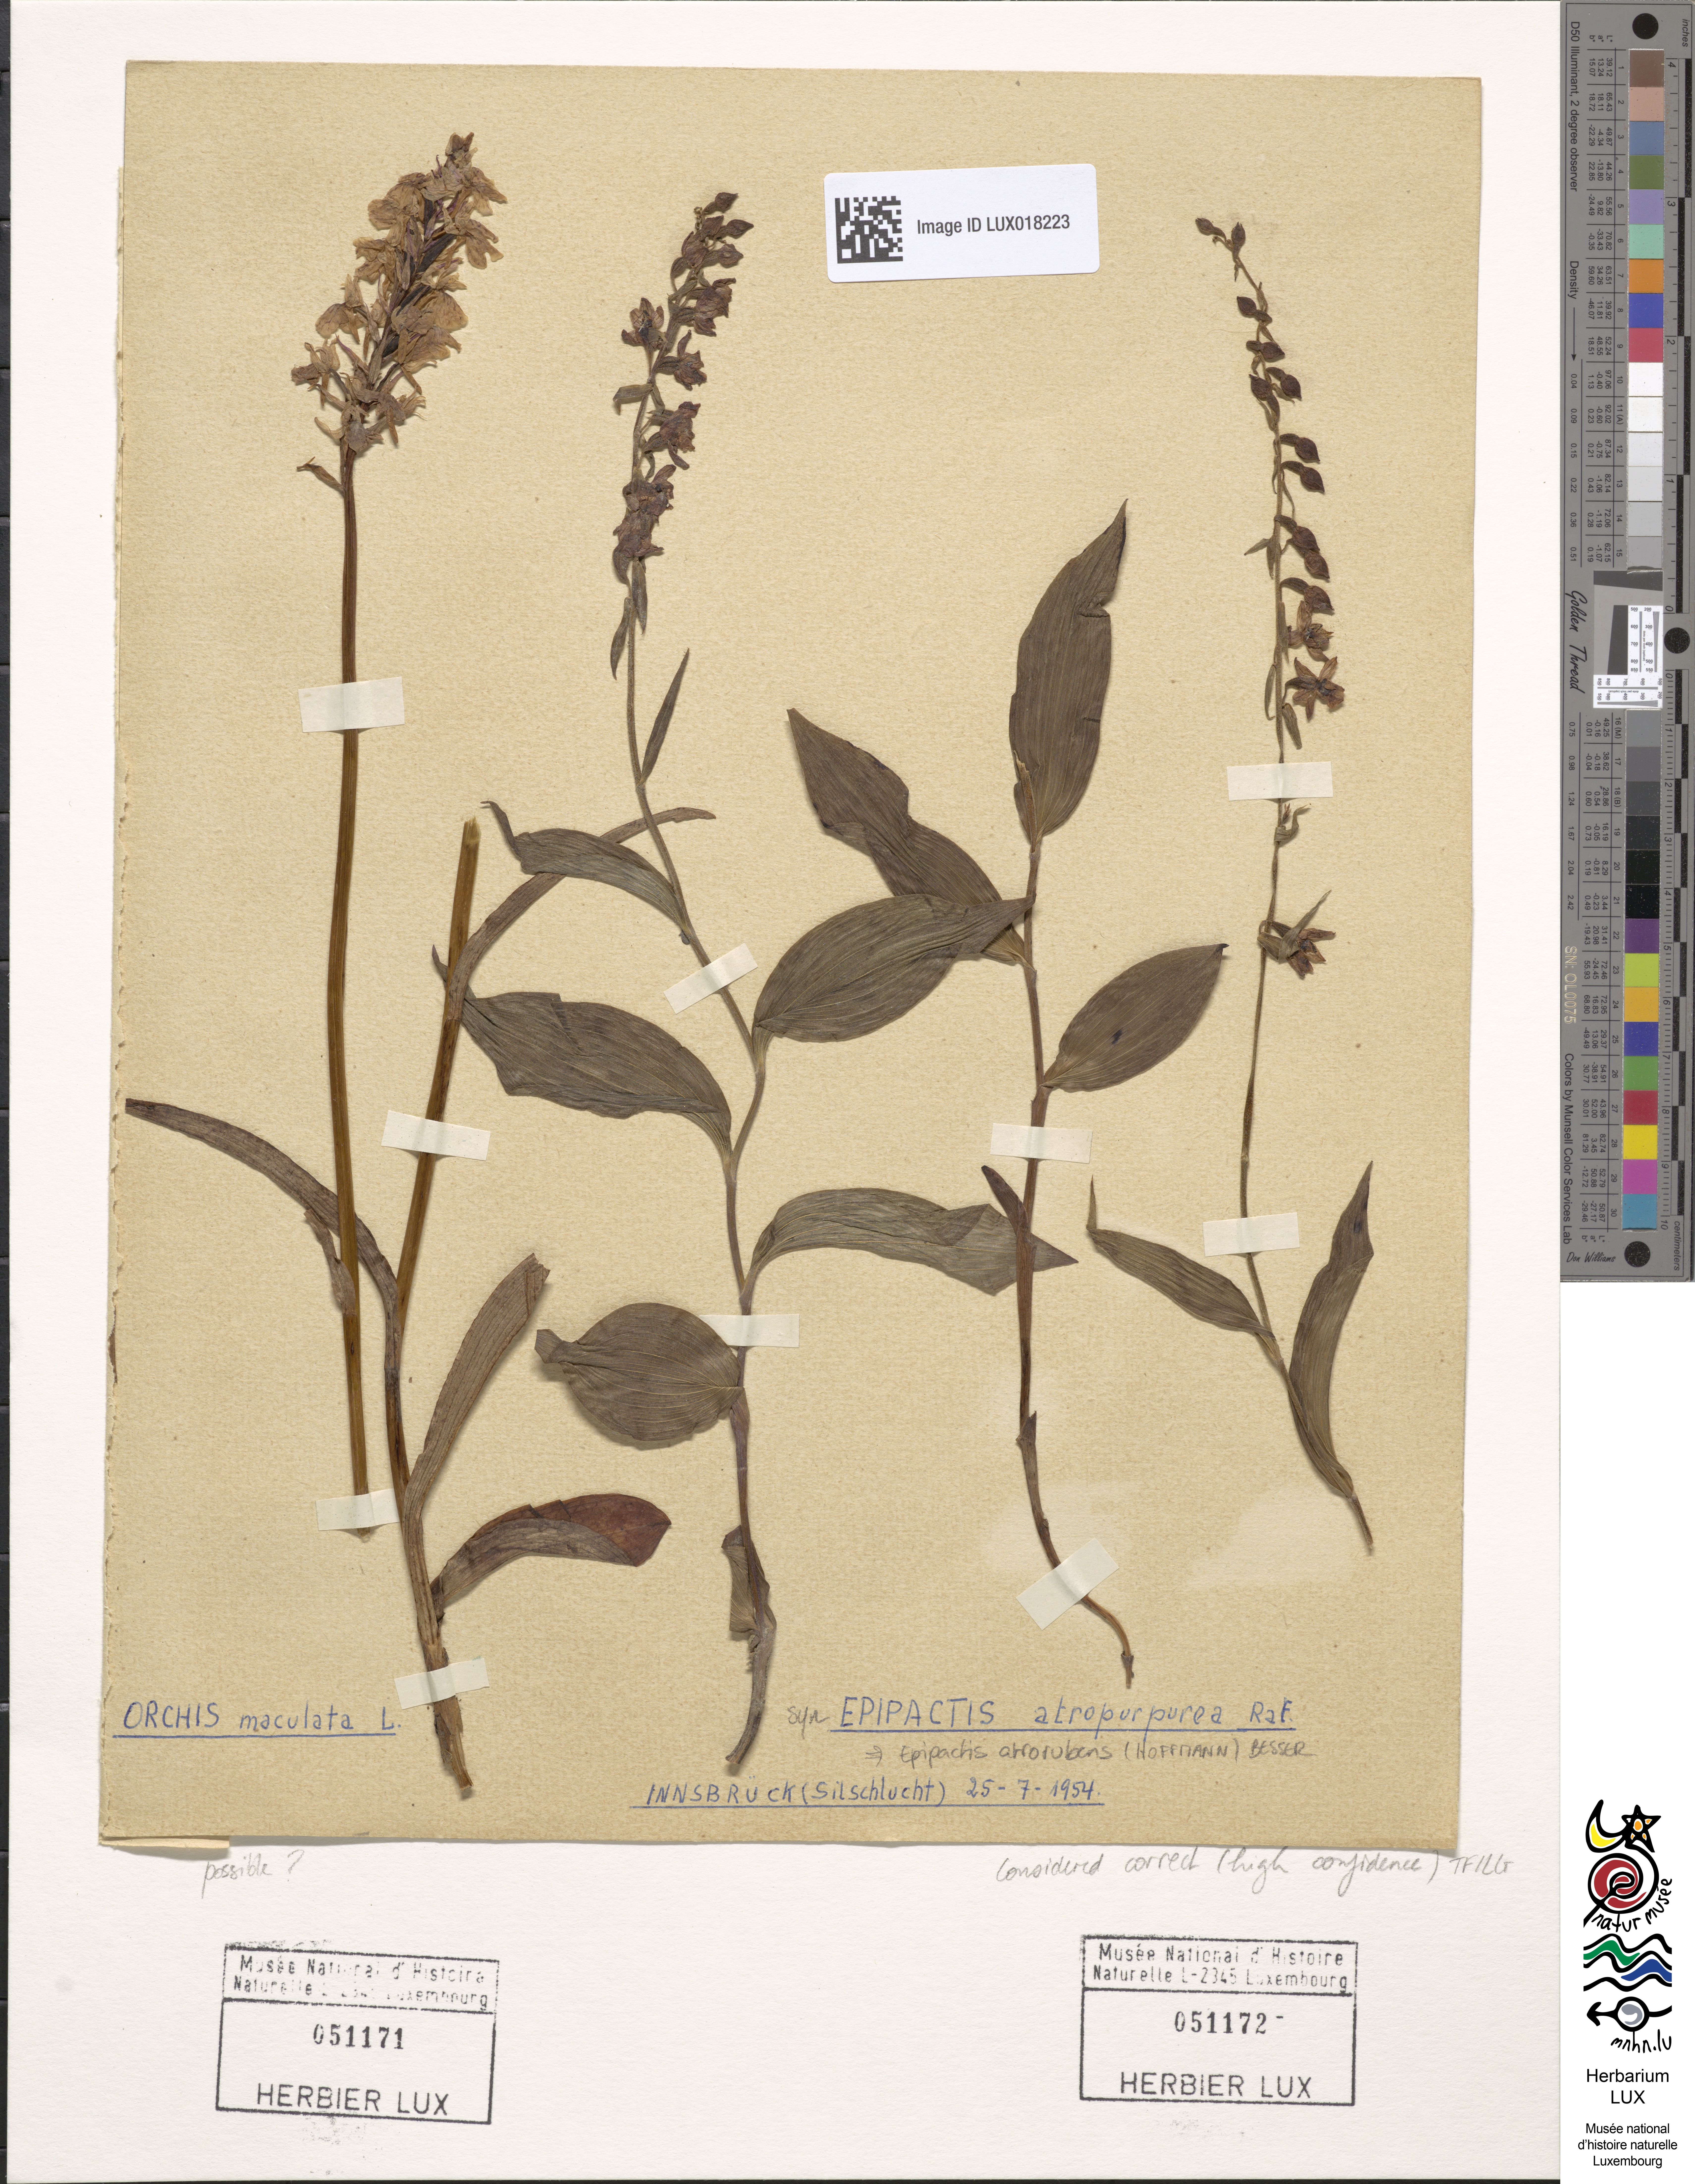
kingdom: Plantae
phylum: Tracheophyta
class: Liliopsida
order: Asparagales
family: Orchidaceae
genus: Epipactis
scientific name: Epipactis atrorubens
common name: Dark-red helleborine
